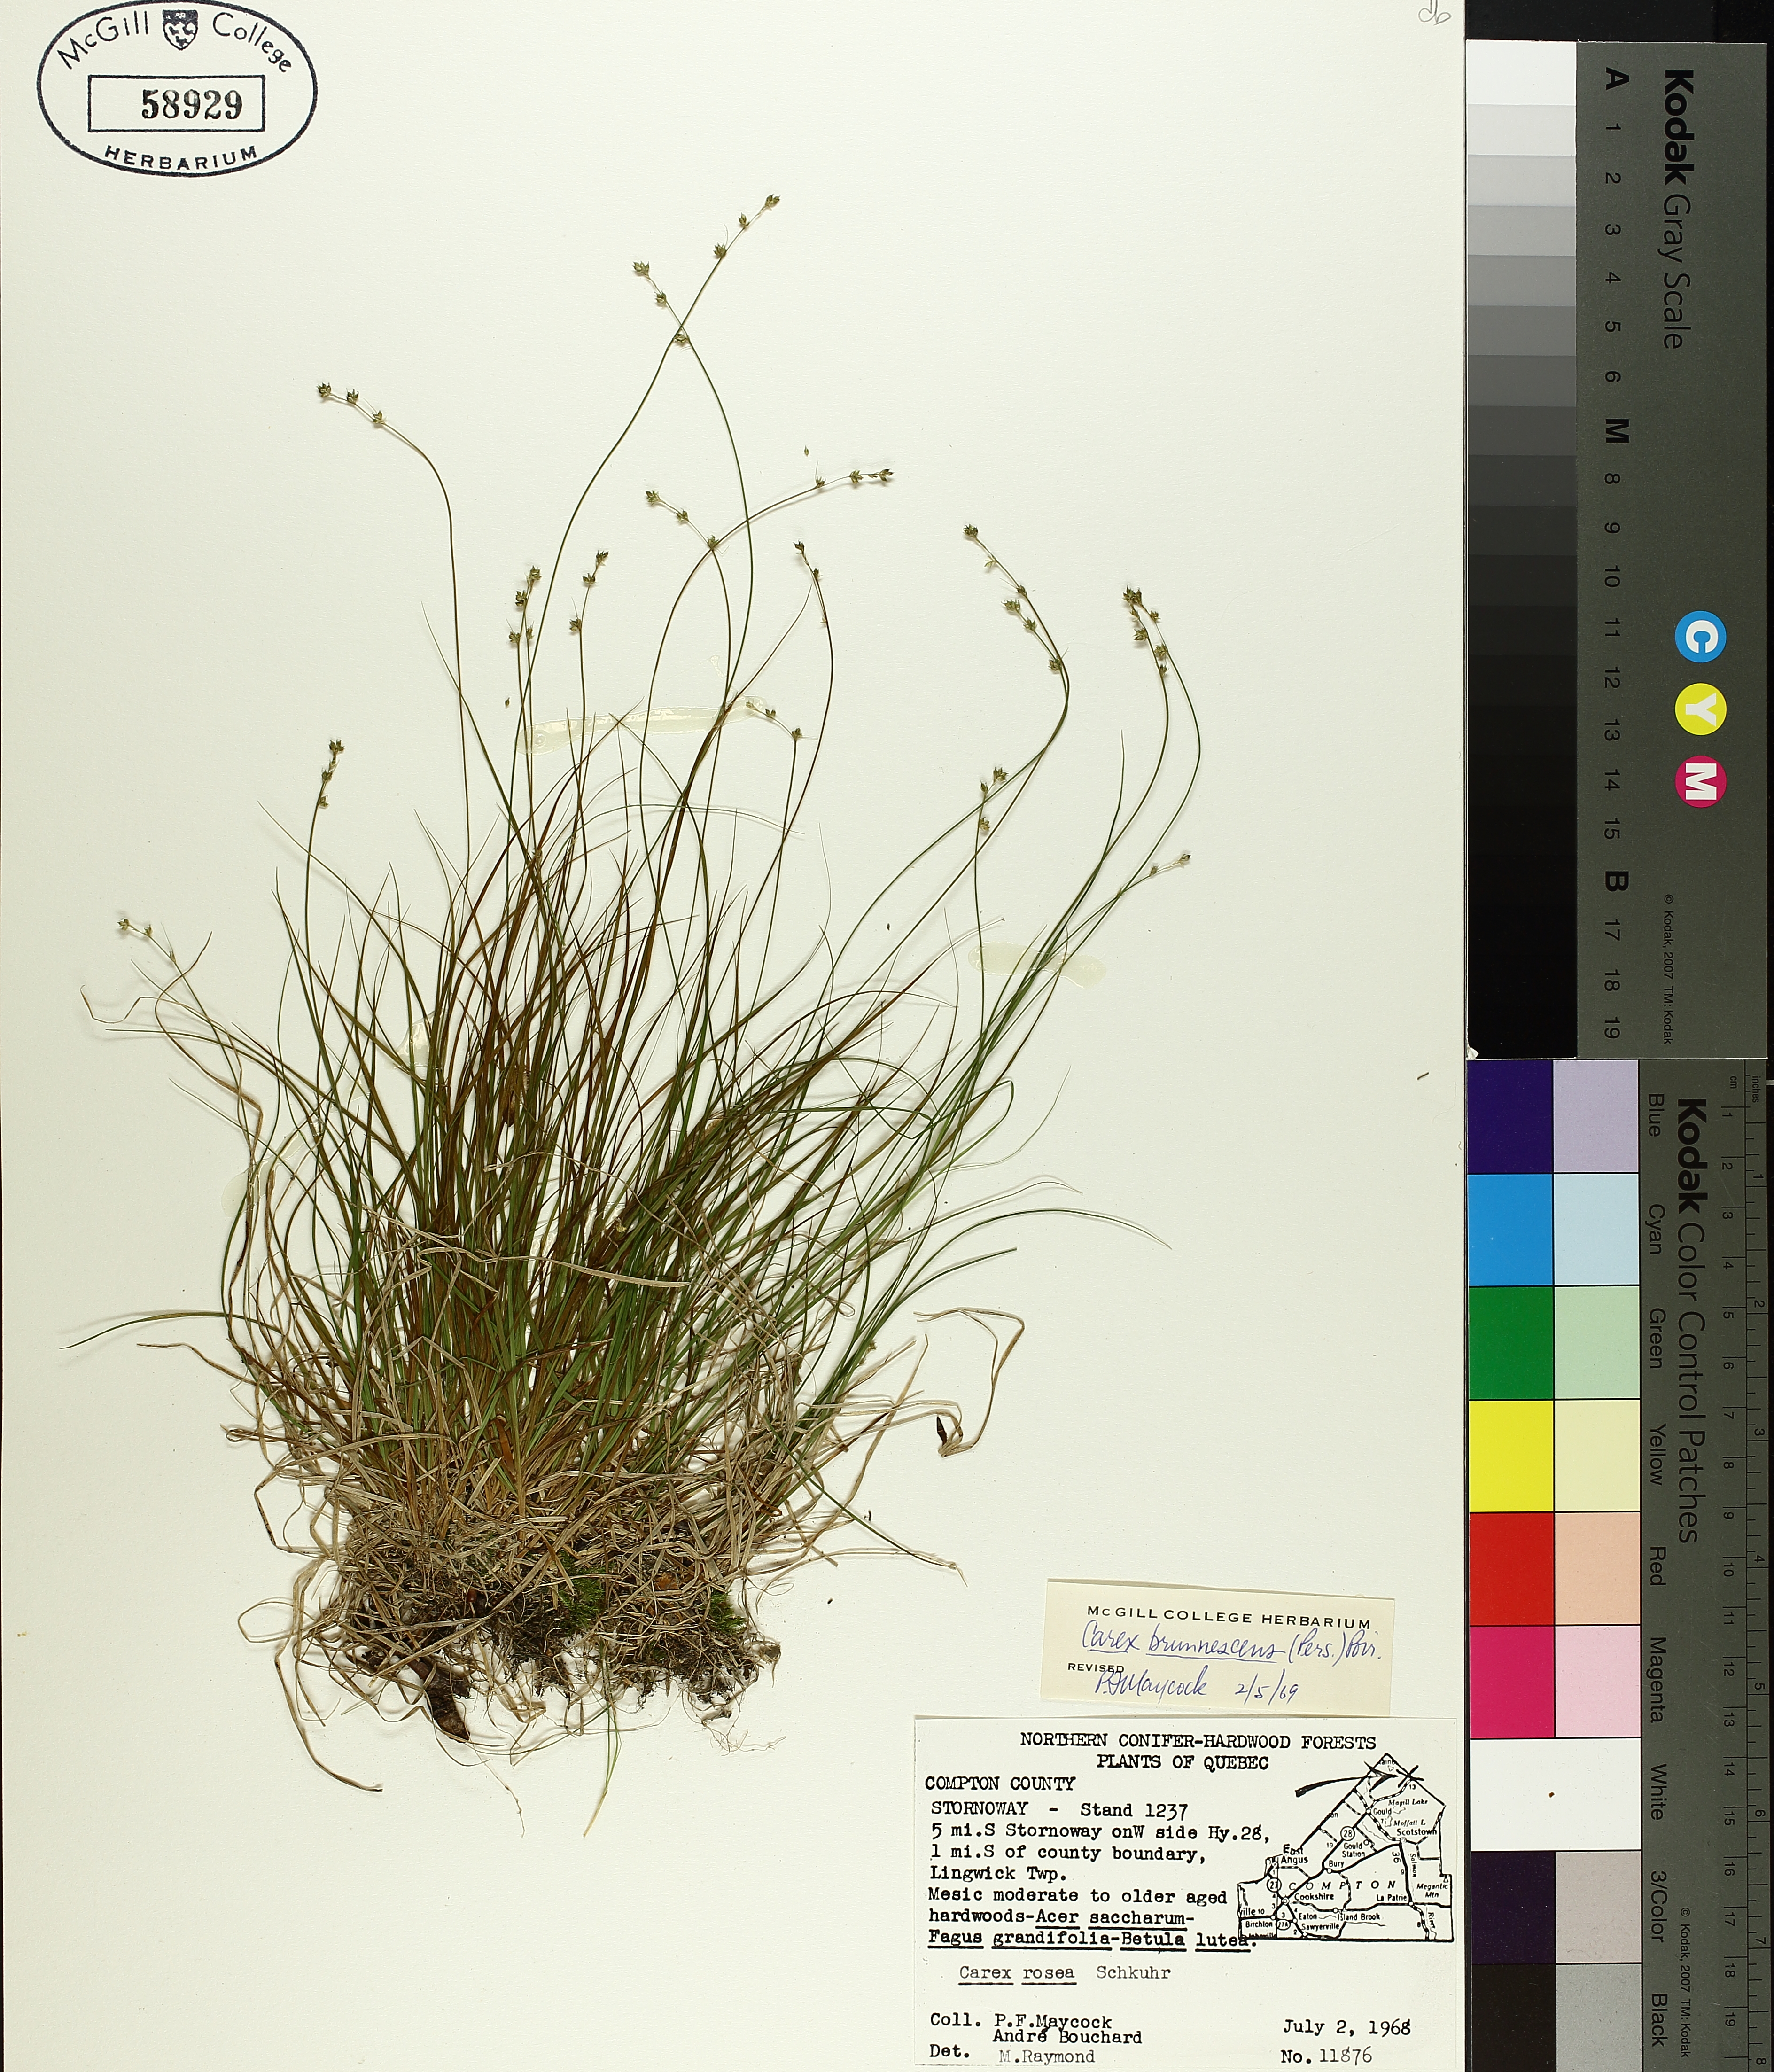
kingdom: Plantae
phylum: Tracheophyta
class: Liliopsida
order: Poales
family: Cyperaceae
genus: Carex
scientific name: Carex brunnescens
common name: Brown sedge
